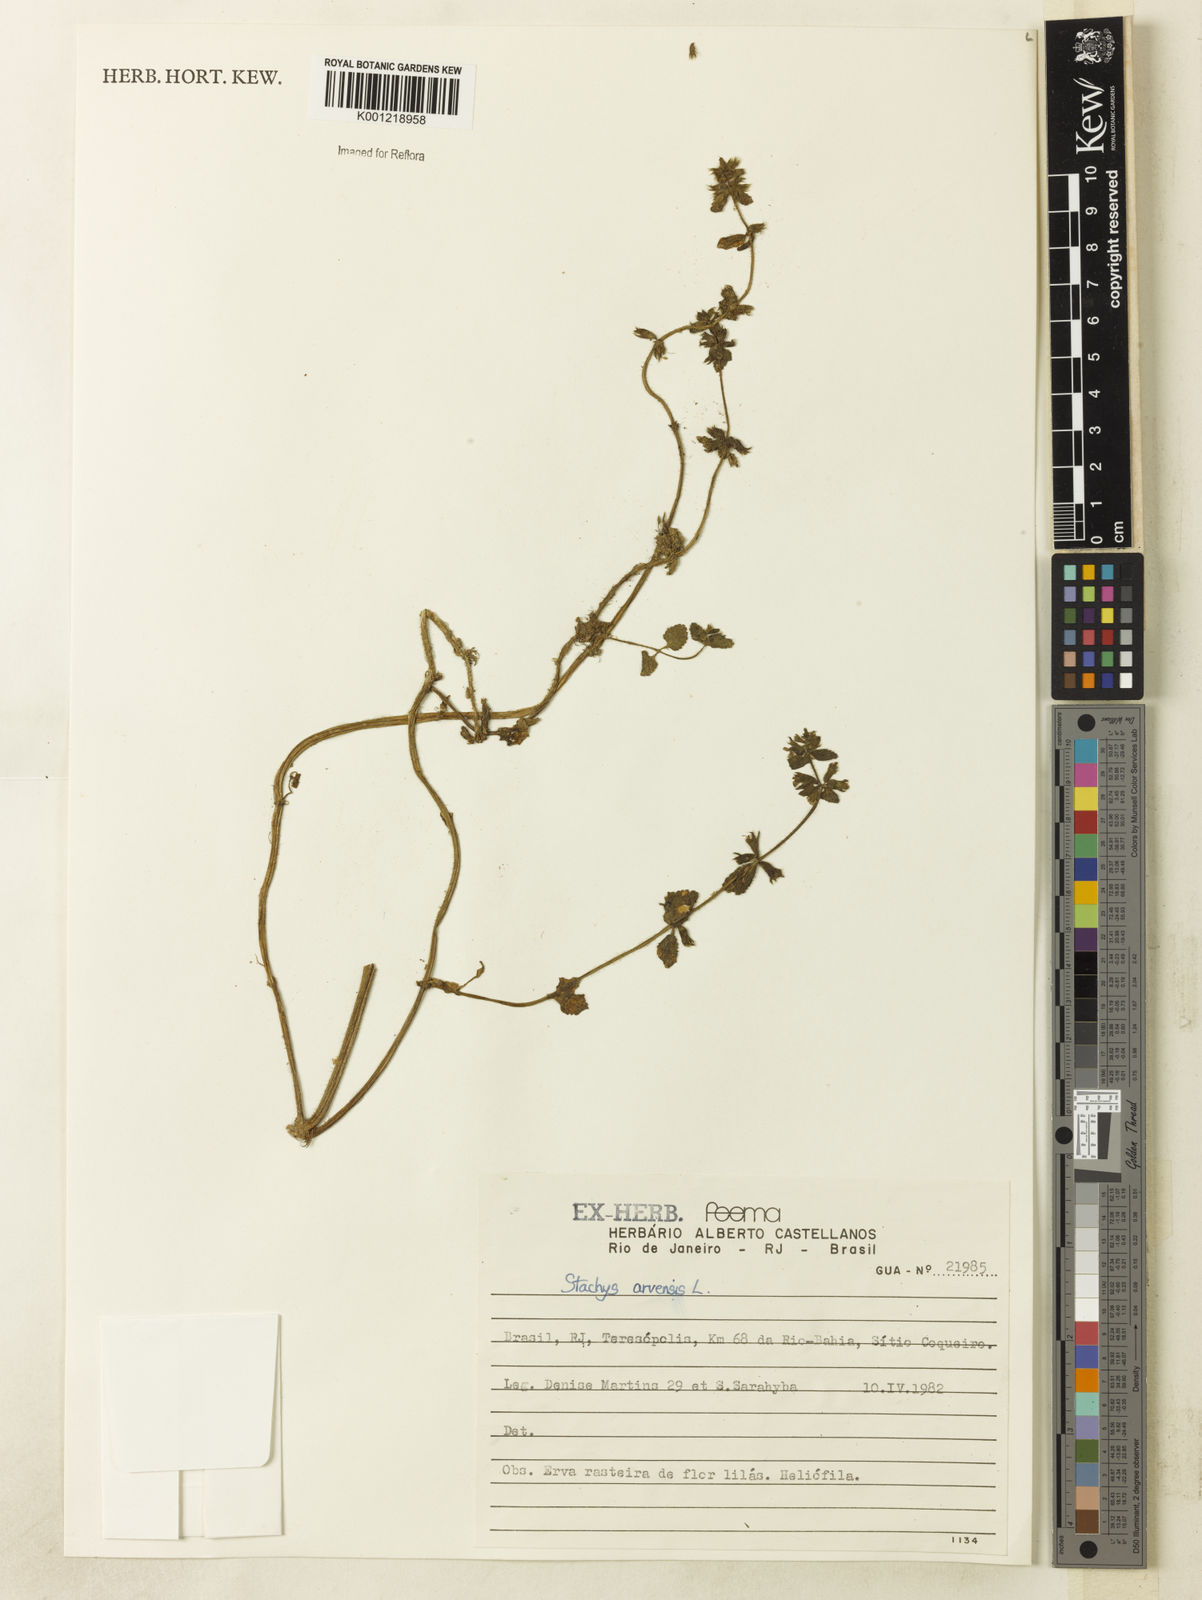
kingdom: Plantae
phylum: Tracheophyta
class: Magnoliopsida
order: Lamiales
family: Lamiaceae
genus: Stachys
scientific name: Stachys arvensis
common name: Field woundwort
